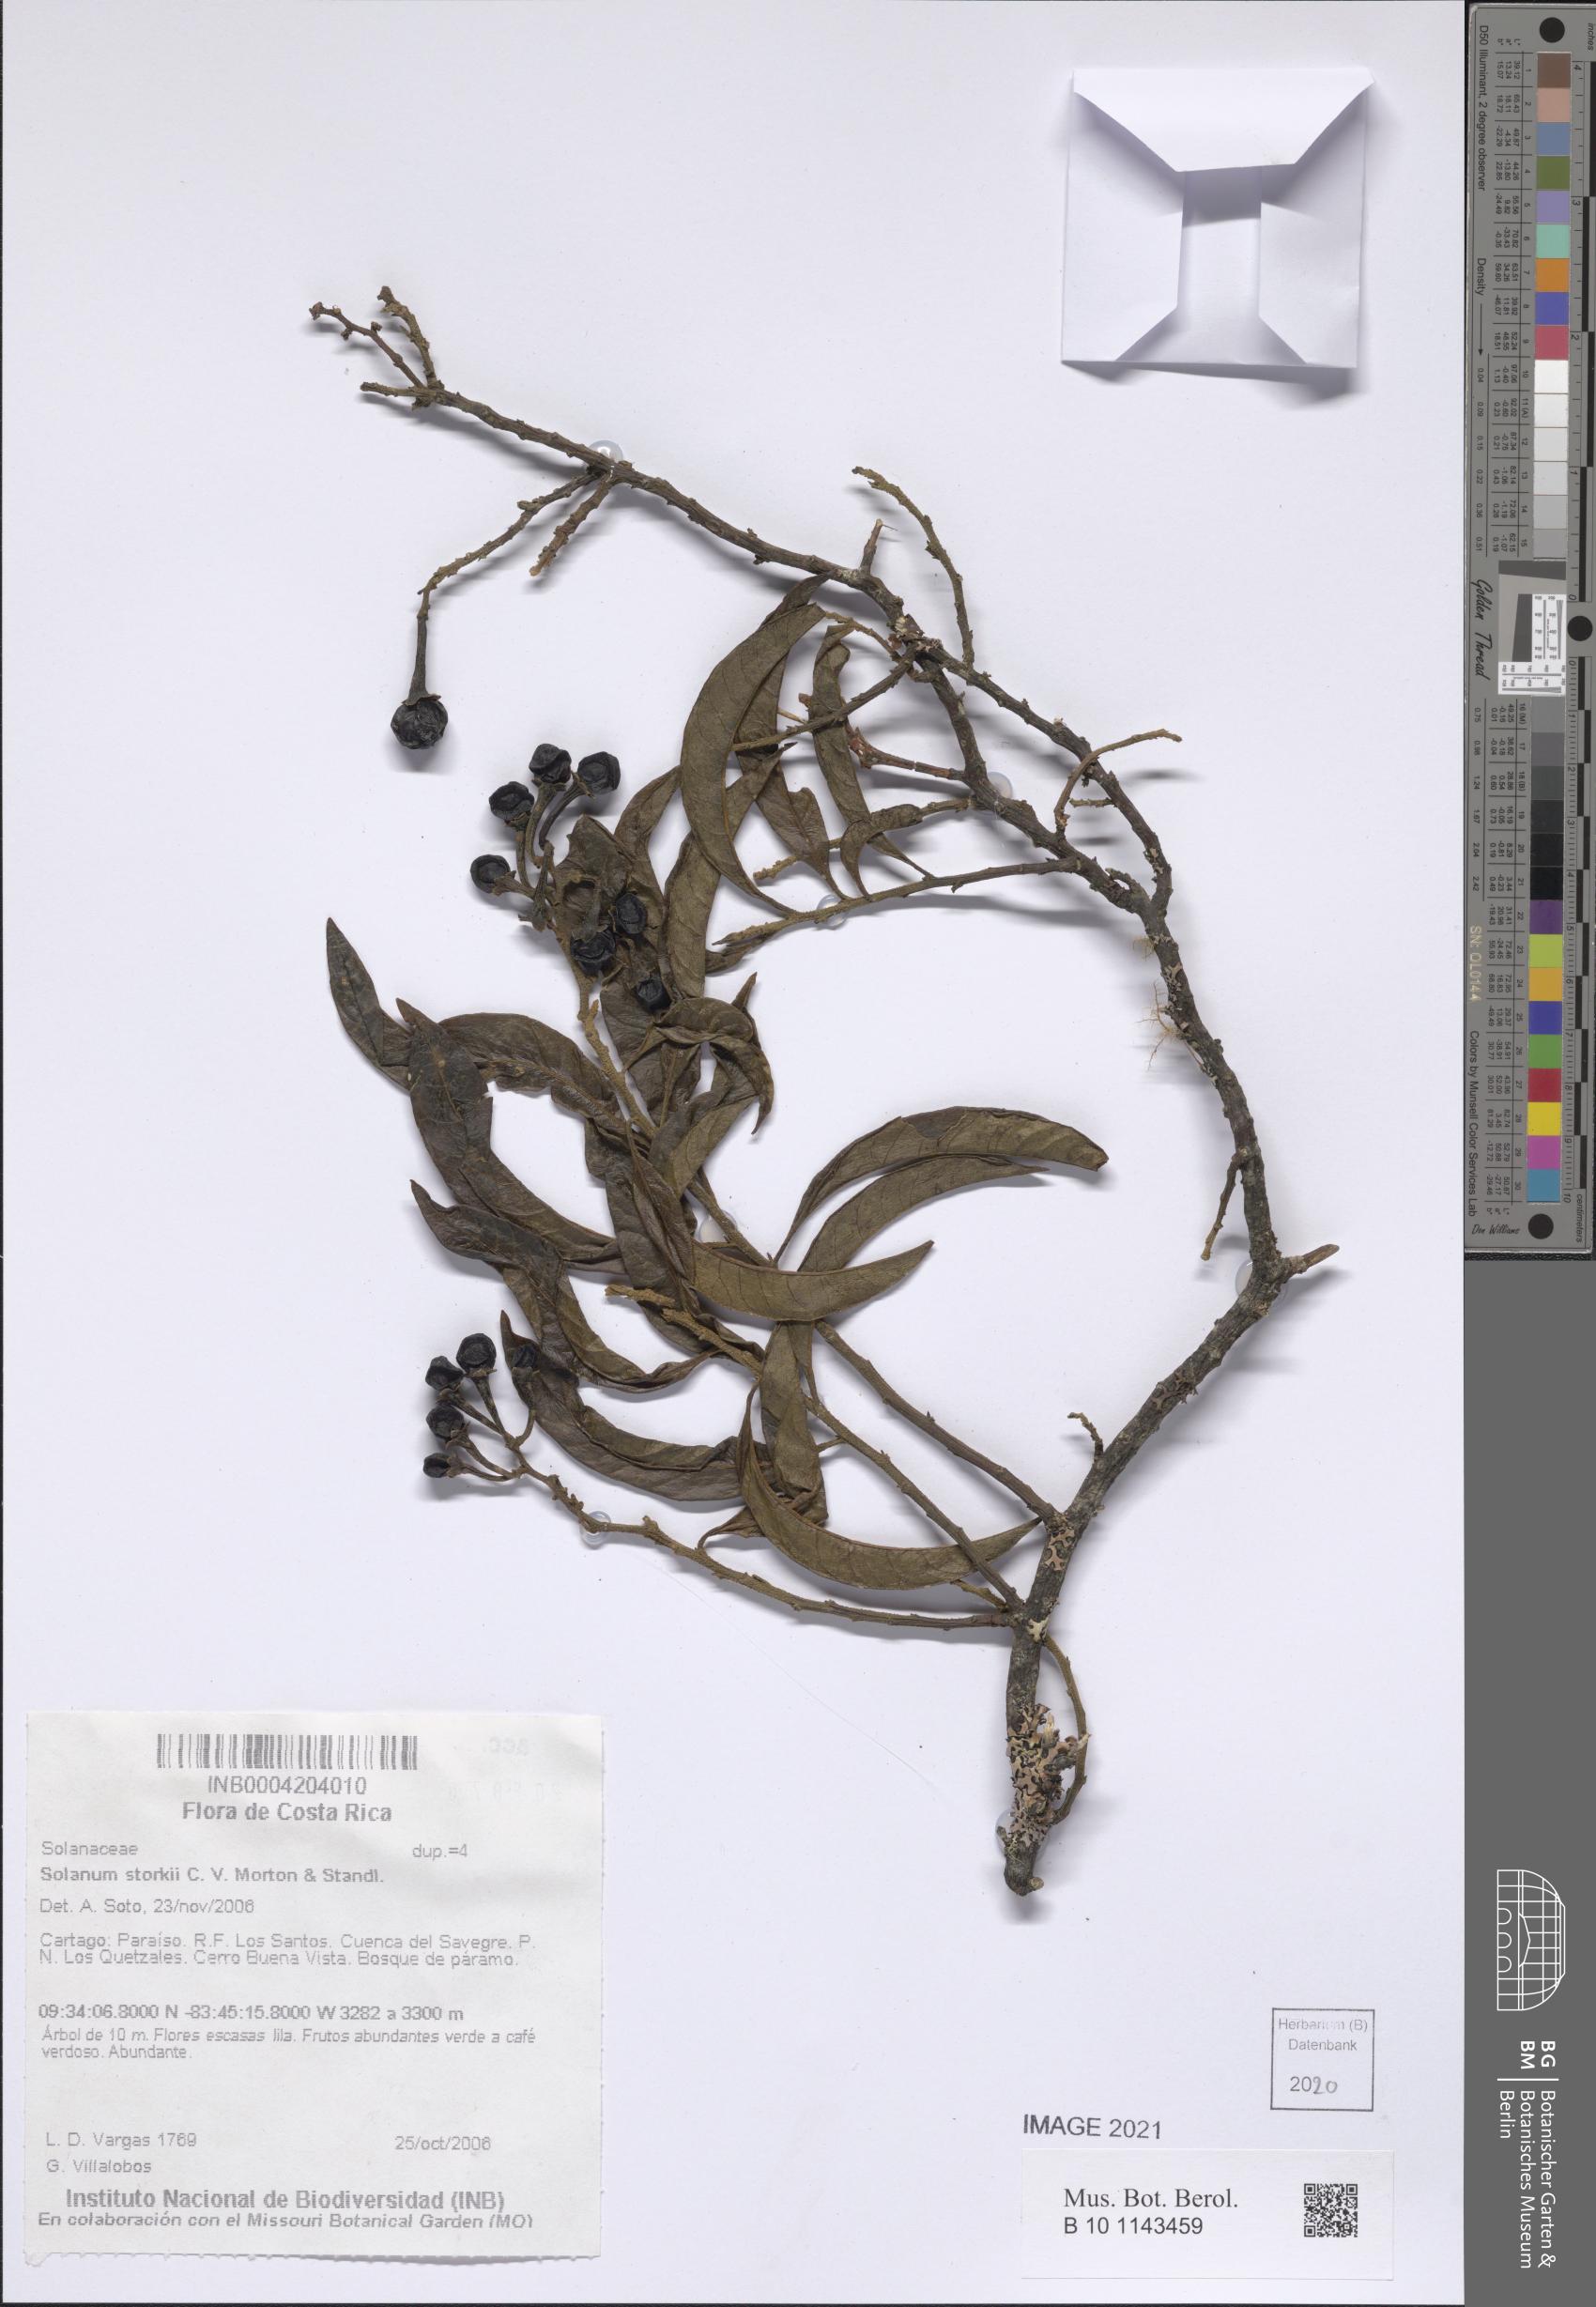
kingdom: Plantae
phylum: Tracheophyta
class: Magnoliopsida
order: Solanales
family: Solanaceae
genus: Solanum
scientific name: Solanum storkii
